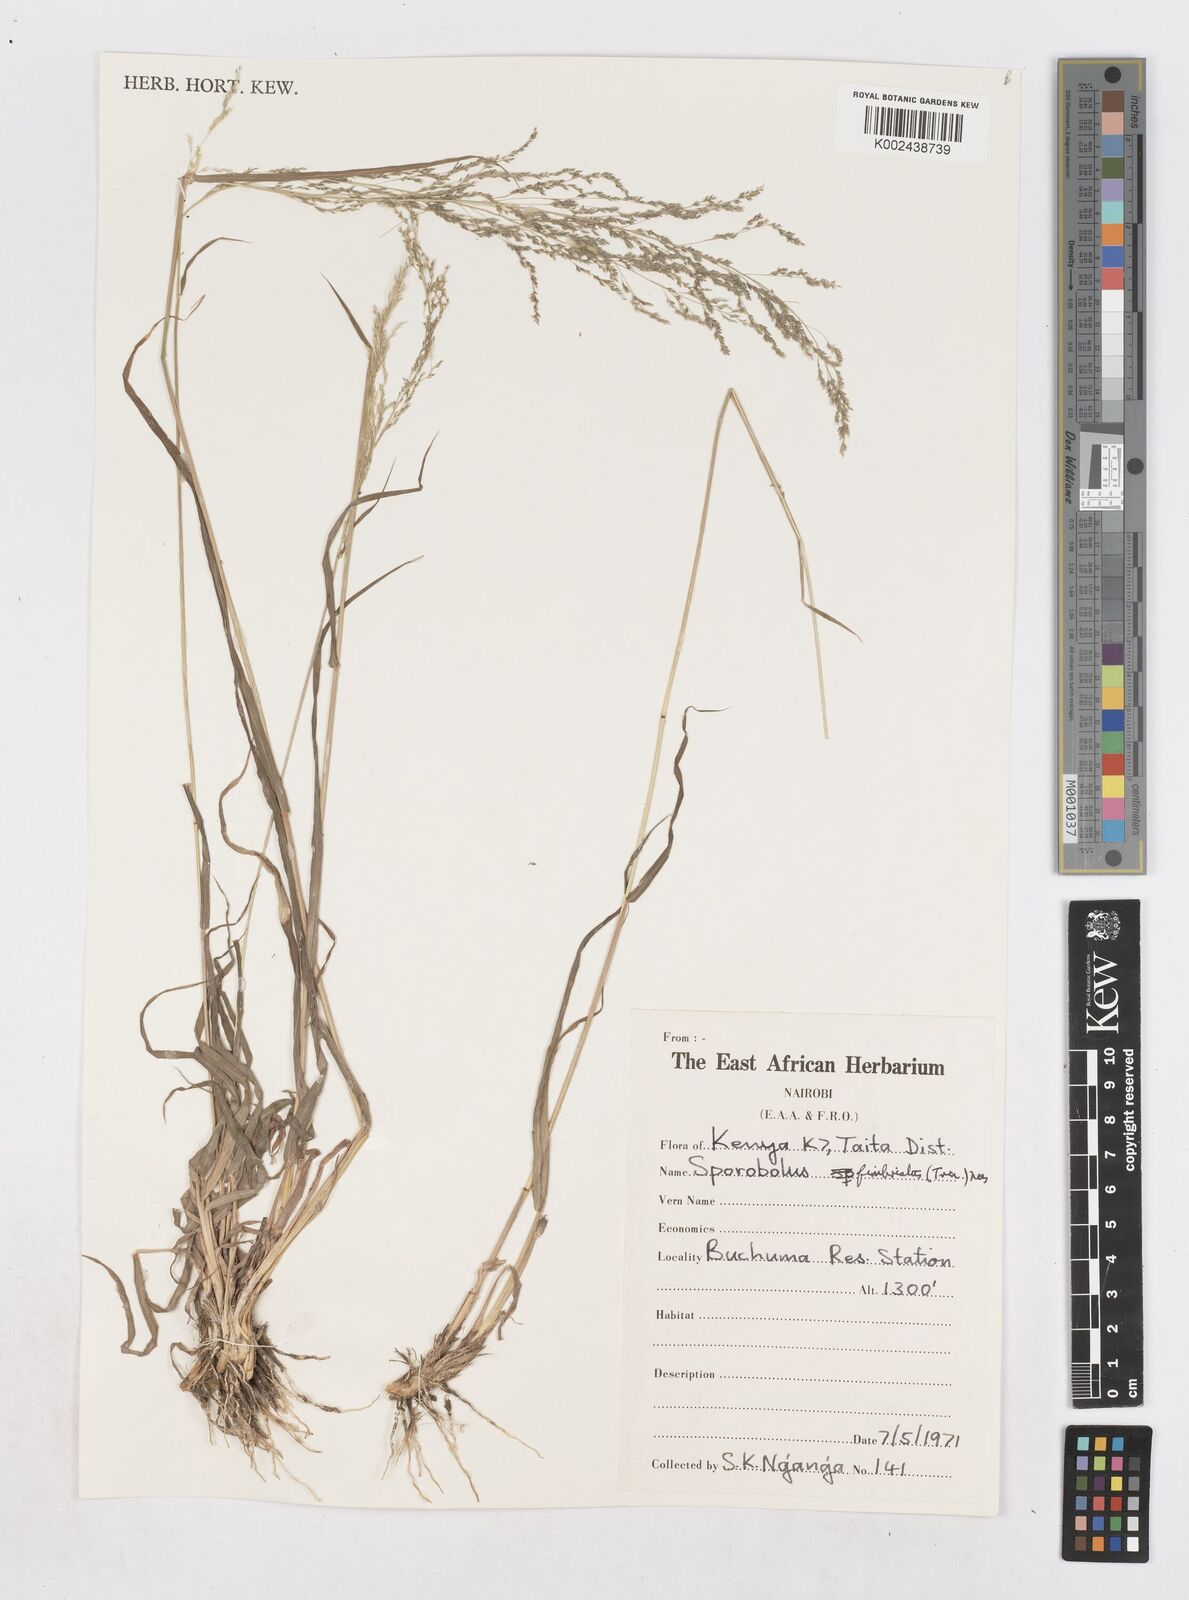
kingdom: Plantae
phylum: Tracheophyta
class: Liliopsida
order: Poales
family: Poaceae
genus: Sporobolus
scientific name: Sporobolus fimbriatus
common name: Fringed dropseed
